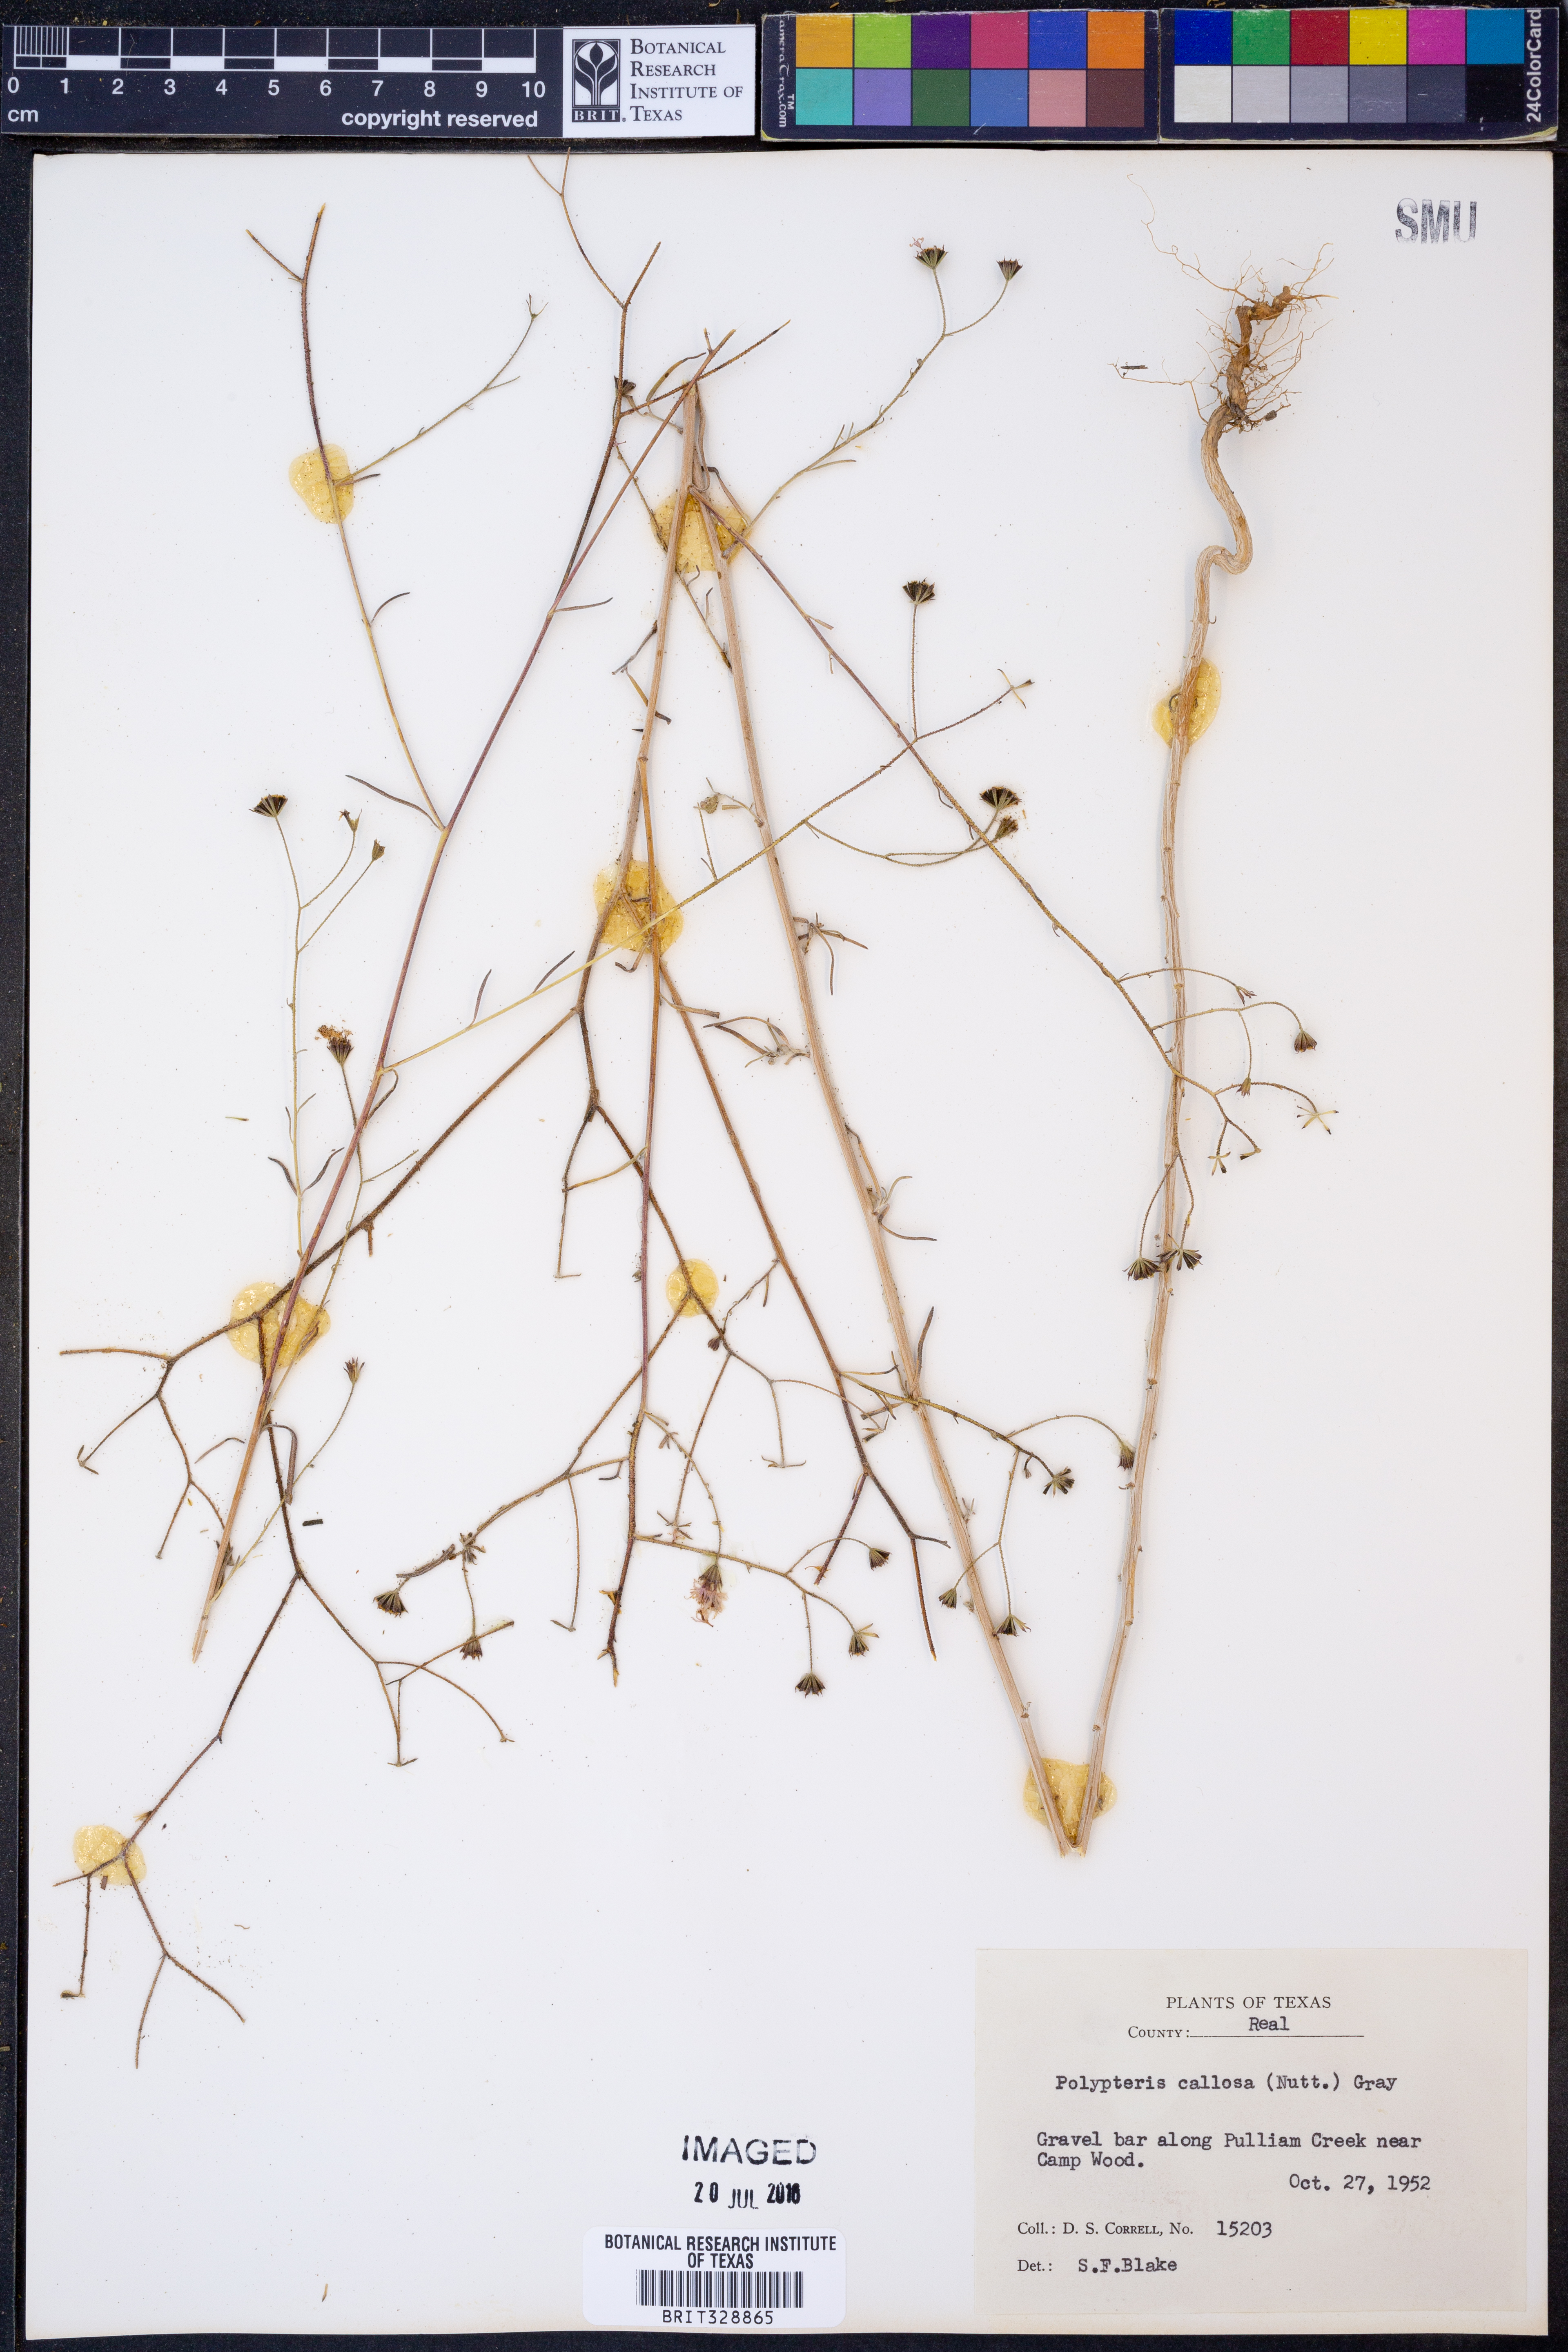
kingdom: Plantae
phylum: Tracheophyta
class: Magnoliopsida
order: Asterales
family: Asteraceae
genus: Palafoxia
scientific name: Palafoxia callosa
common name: Small palafox
